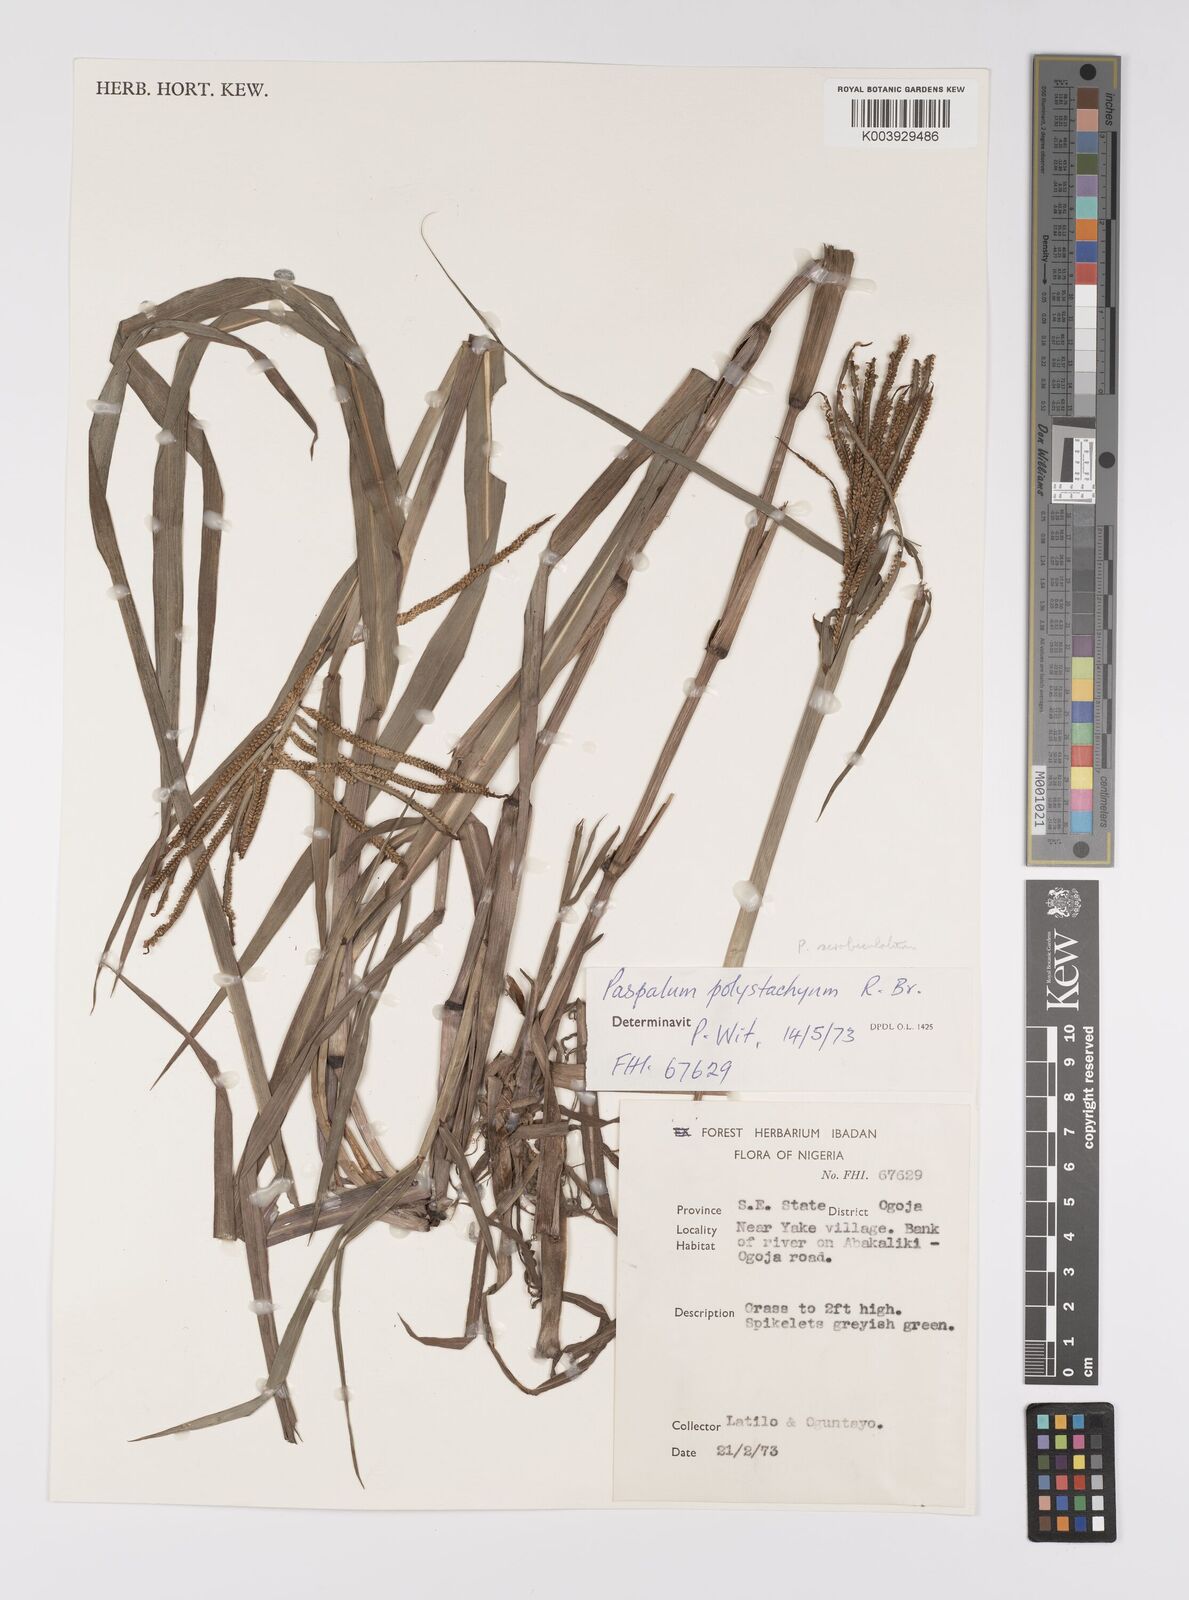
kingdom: Plantae
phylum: Tracheophyta
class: Liliopsida
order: Poales
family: Poaceae
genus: Paspalum
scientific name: Paspalum scrobiculatum
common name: Kodo millet
